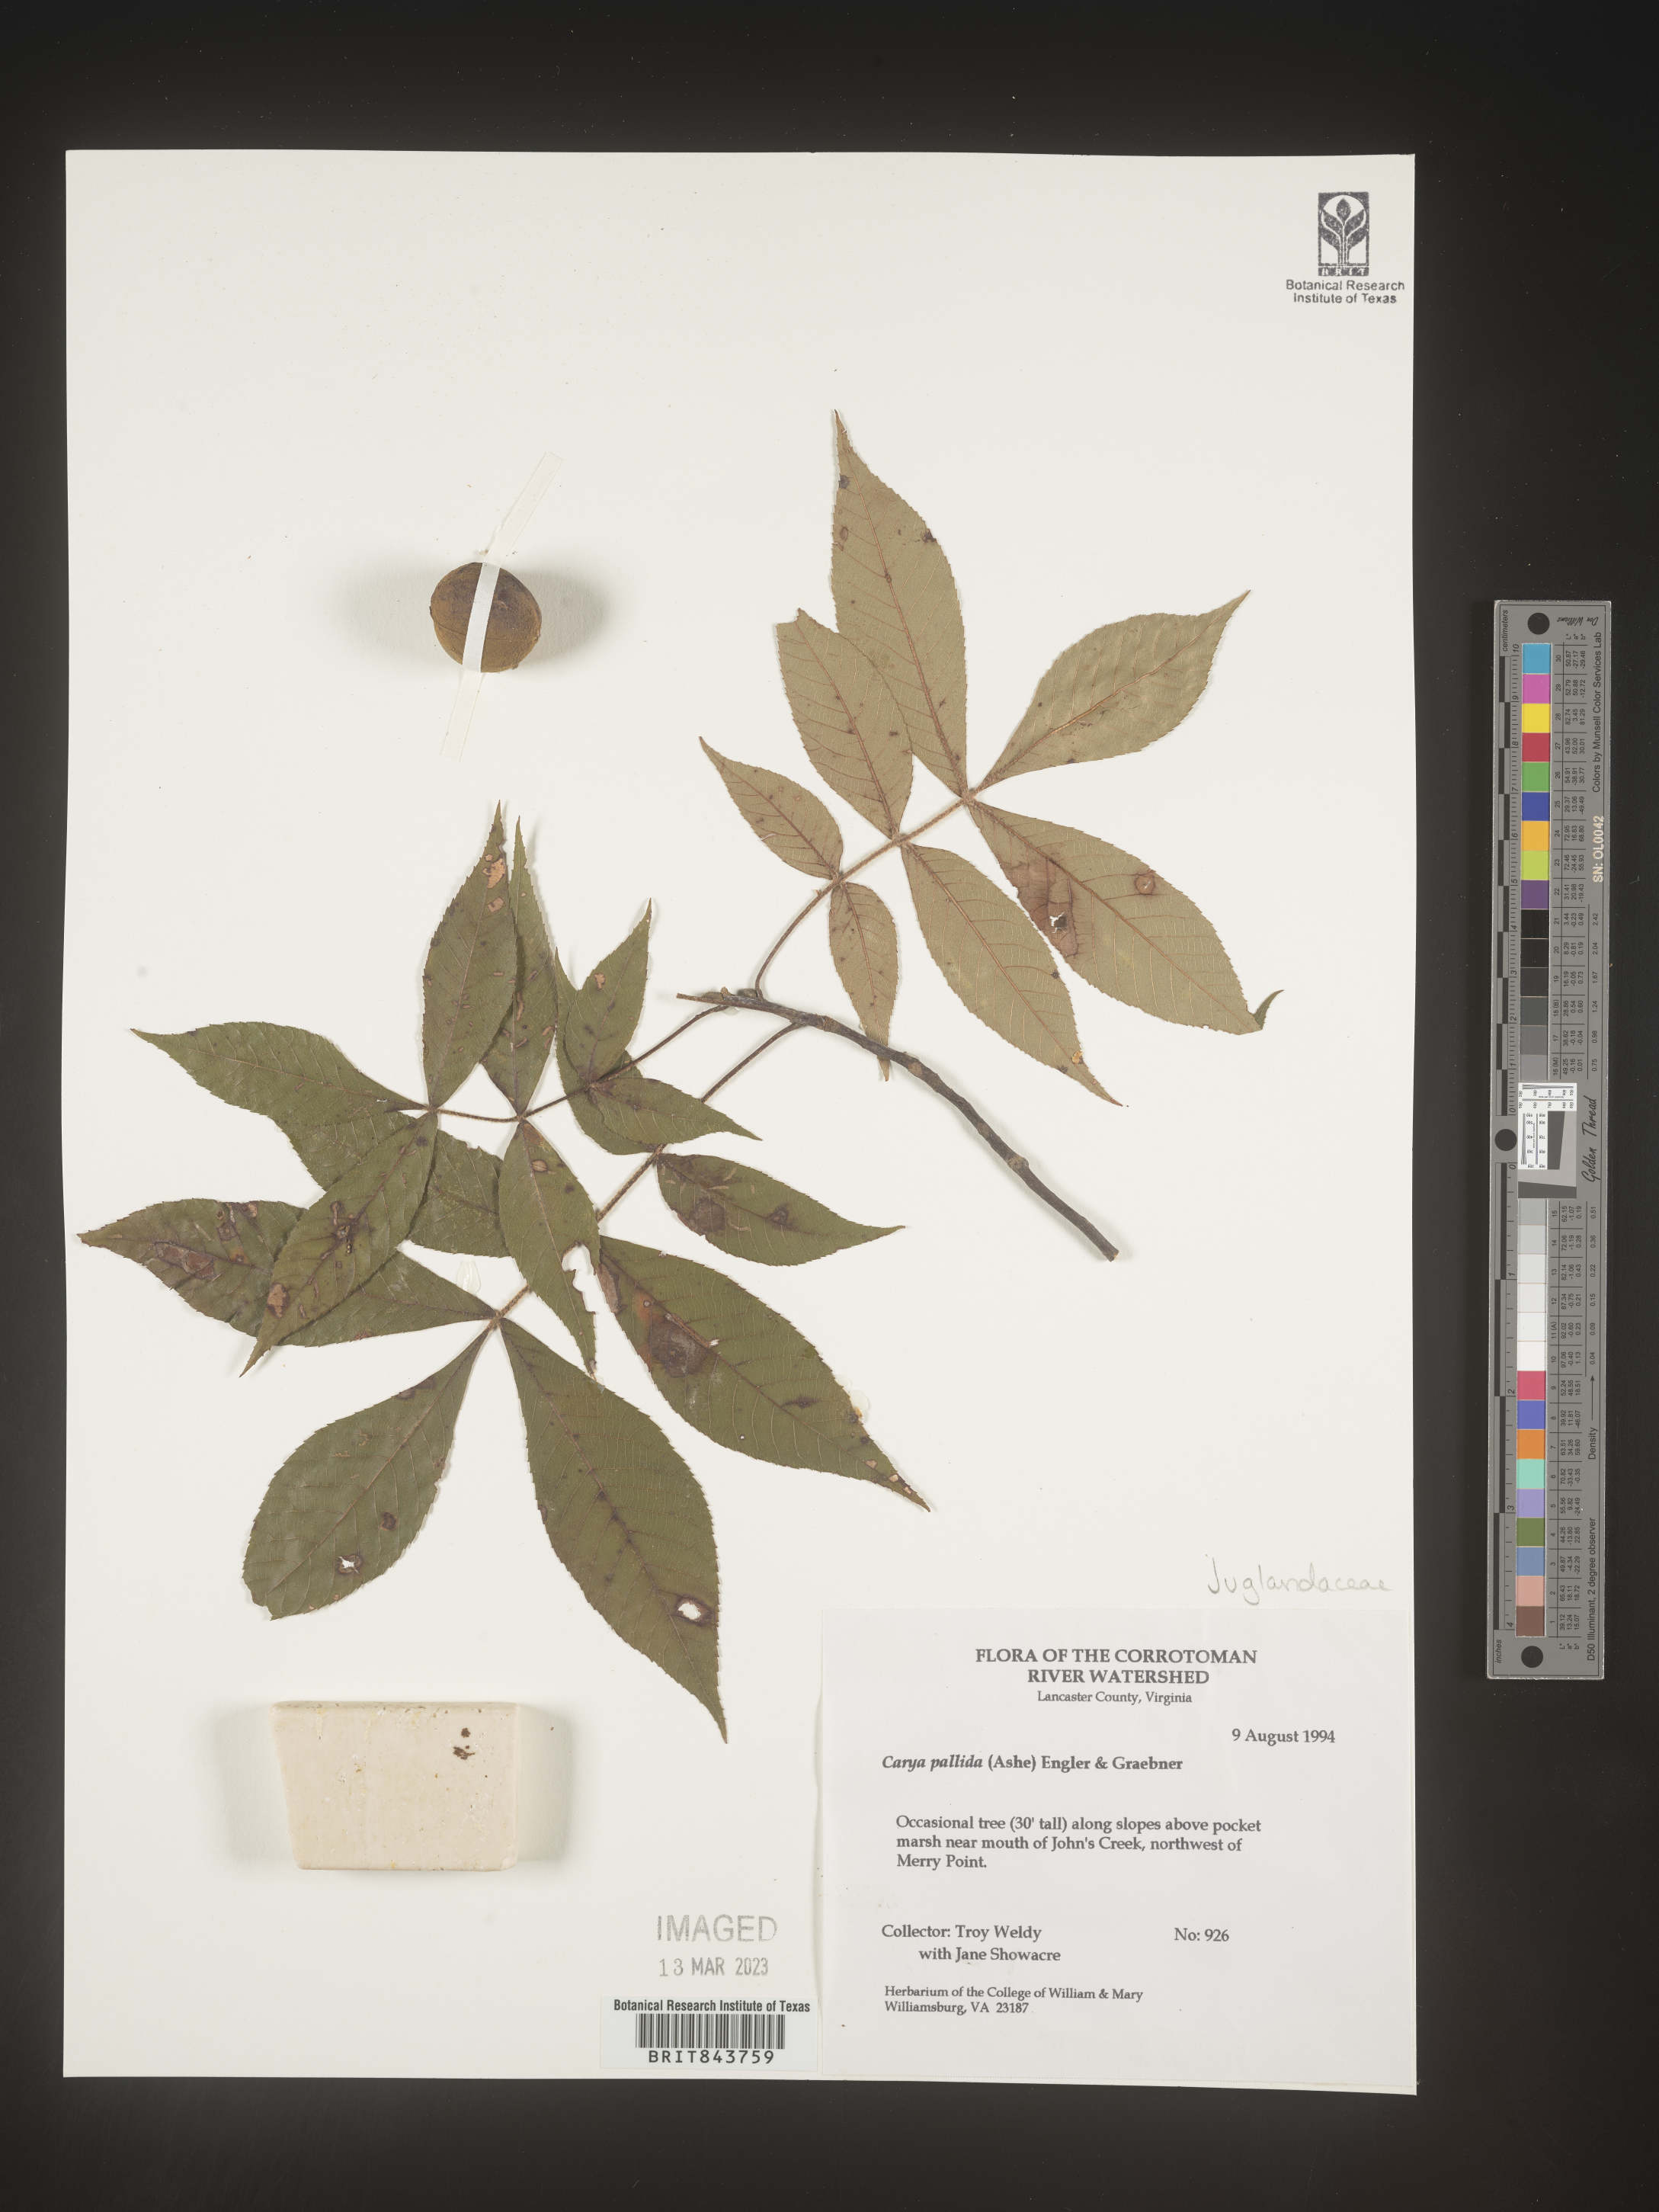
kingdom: Plantae
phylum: Tracheophyta
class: Magnoliopsida
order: Fagales
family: Juglandaceae
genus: Carya
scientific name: Carya pallida
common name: Sand hickory
